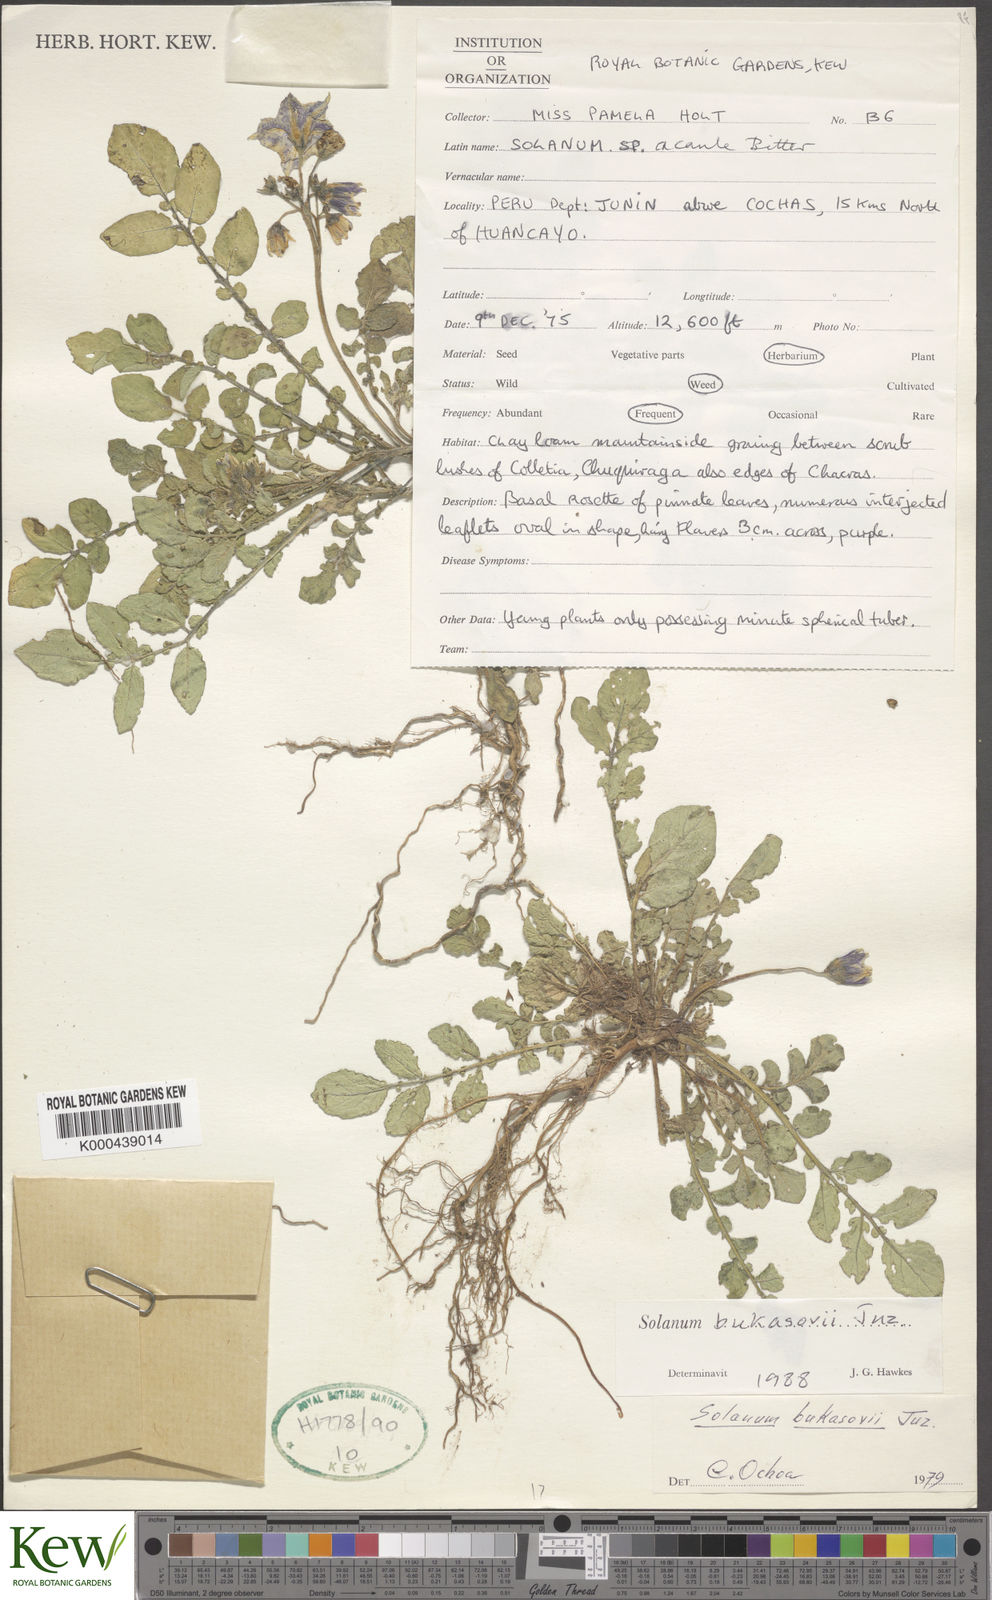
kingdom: Plantae
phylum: Tracheophyta
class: Magnoliopsida
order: Solanales
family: Solanaceae
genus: Solanum
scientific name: Solanum candolleanum
